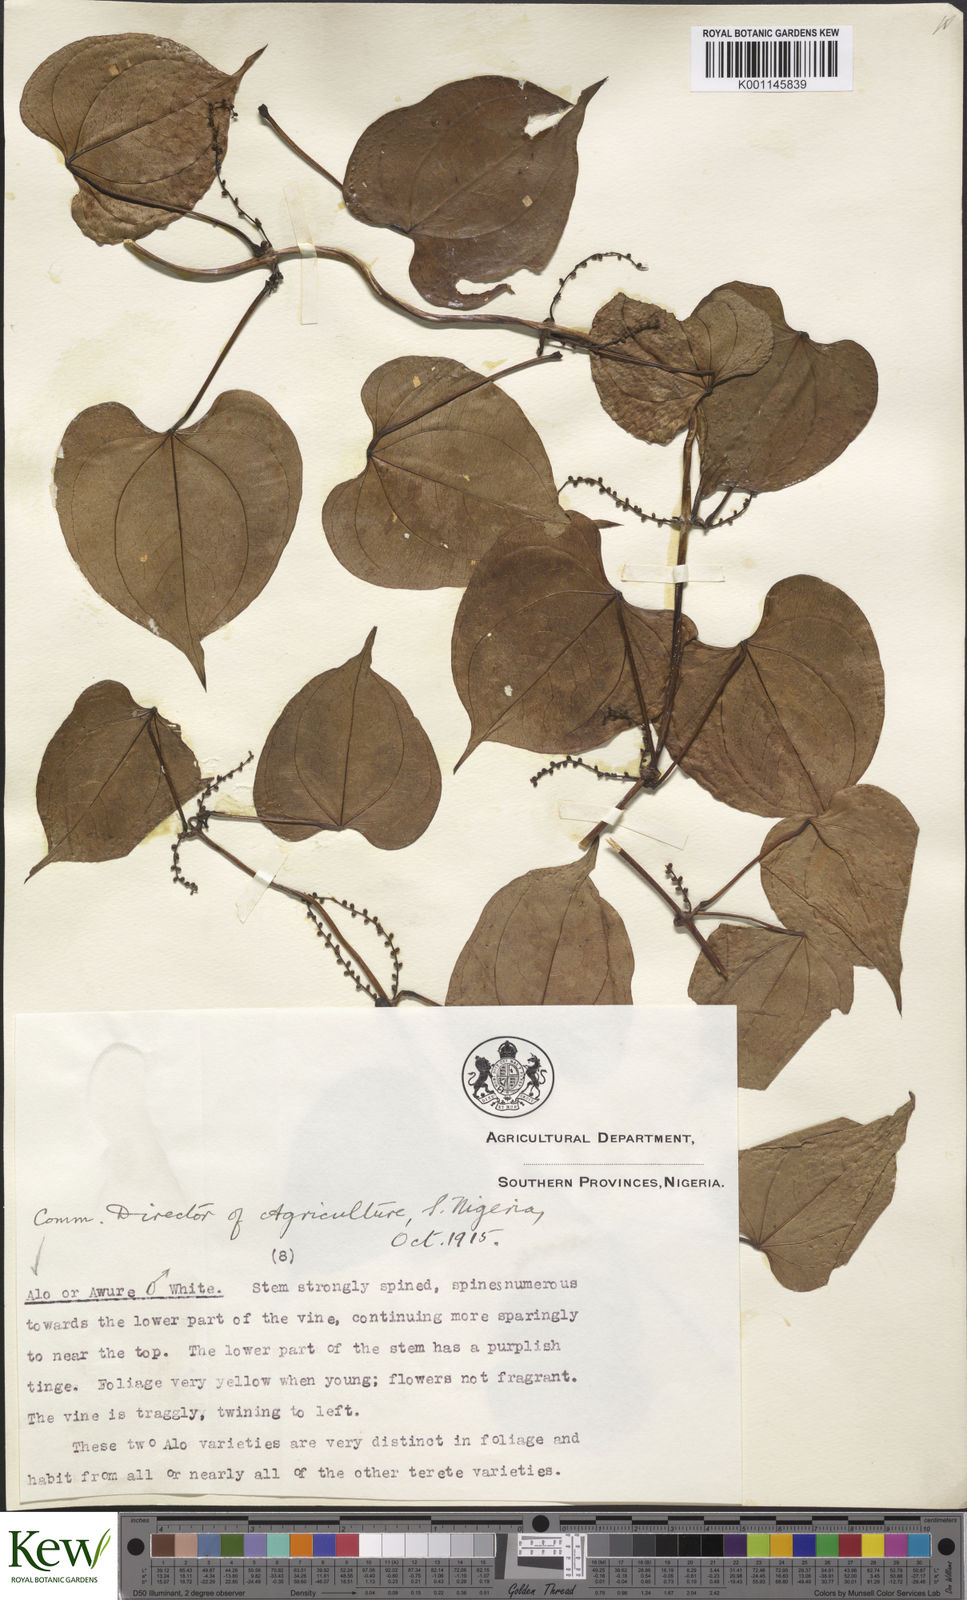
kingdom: Plantae
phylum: Tracheophyta
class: Liliopsida
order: Dioscoreales
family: Dioscoreaceae
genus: Dioscorea
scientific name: Dioscorea cayenensis
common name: Attoto yam
